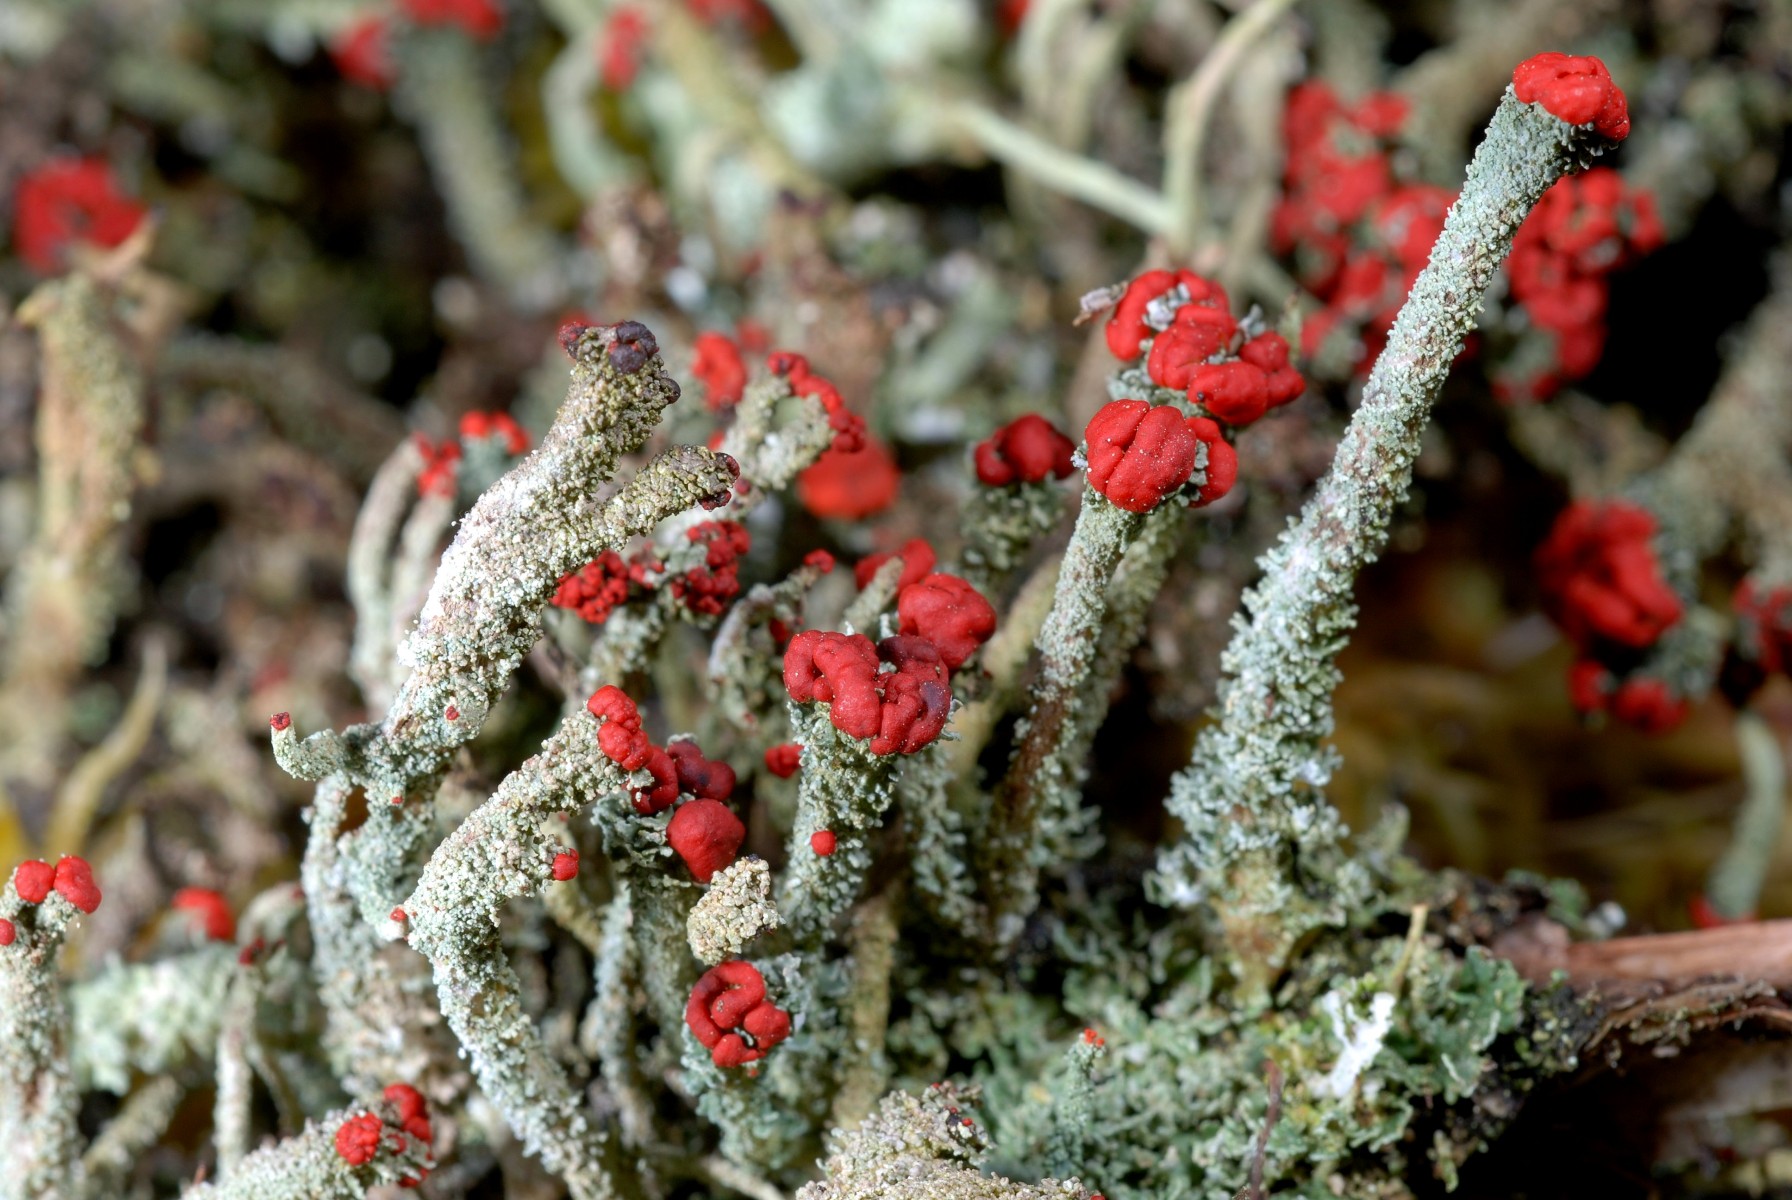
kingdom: Fungi
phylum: Ascomycota
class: Lecanoromycetes
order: Lecanorales
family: Cladoniaceae
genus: Cladonia
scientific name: Cladonia floerkeana
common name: lakrød bægerlav
